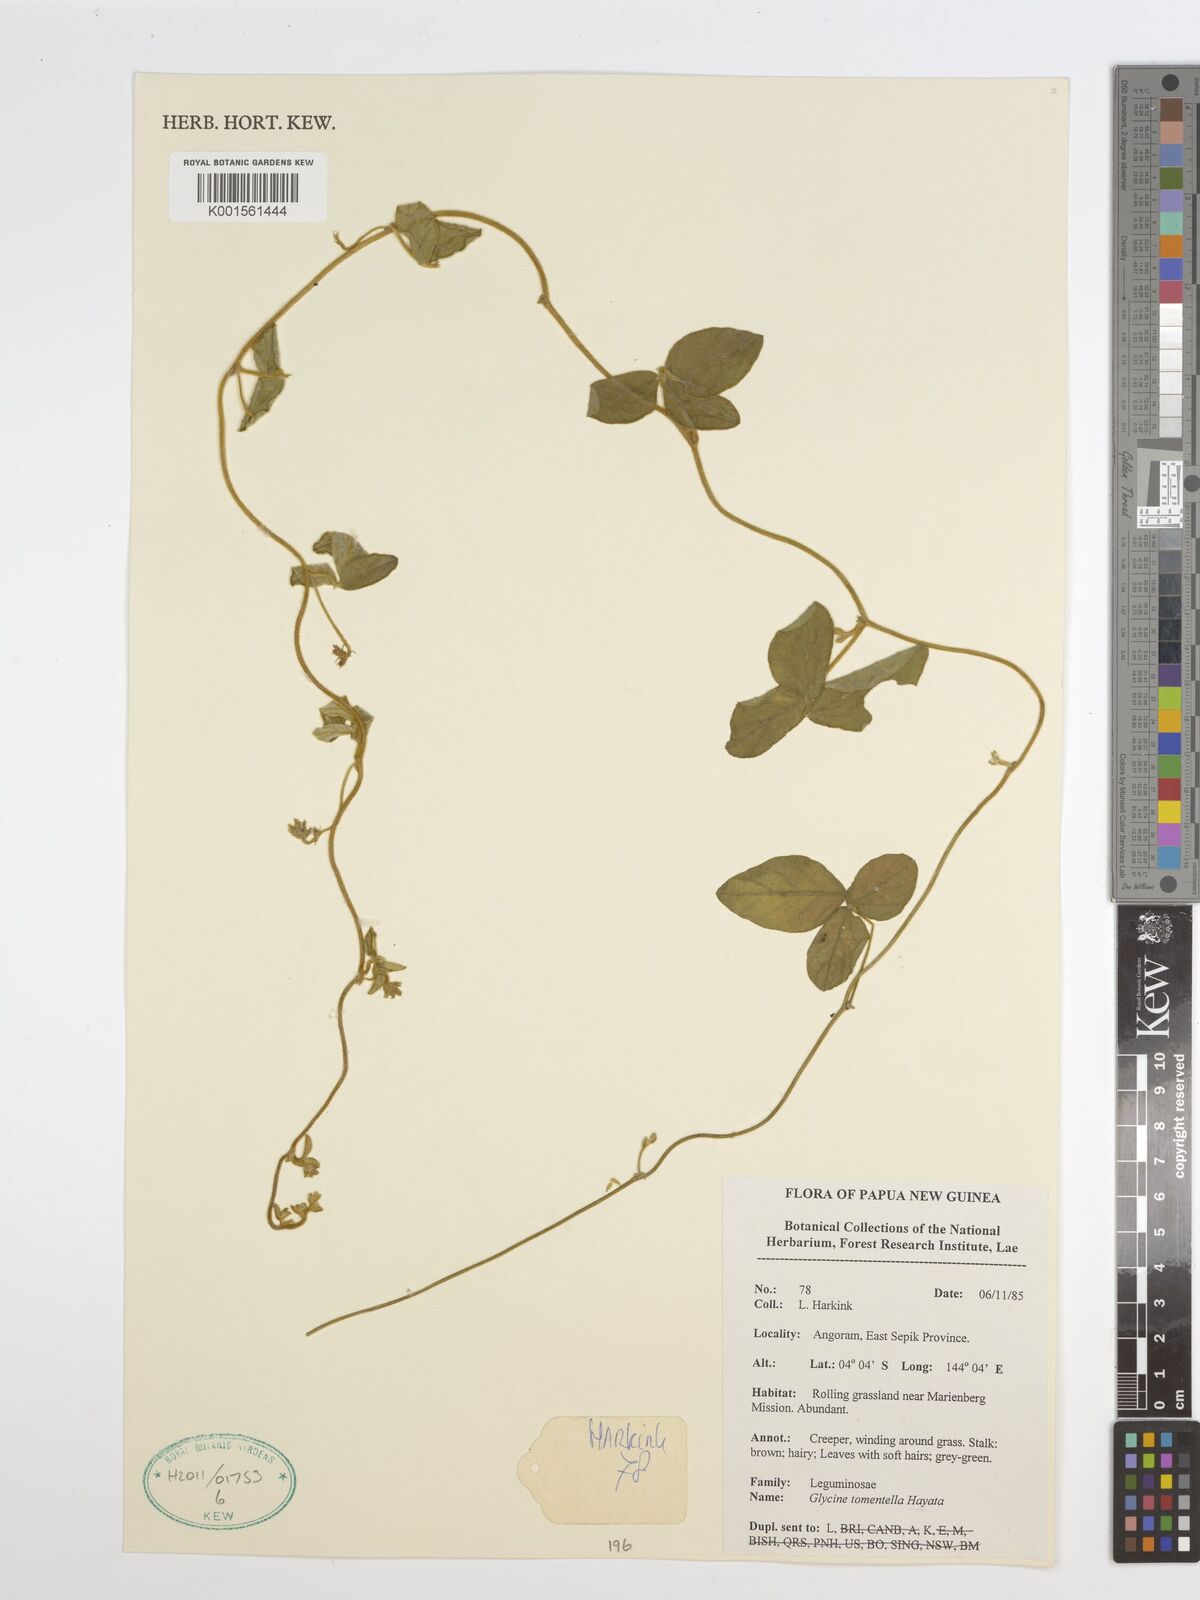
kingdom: Plantae
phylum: Tracheophyta
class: Magnoliopsida
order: Fabales
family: Fabaceae
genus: Glycine
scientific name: Glycine tomentella
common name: Hairy glycine
